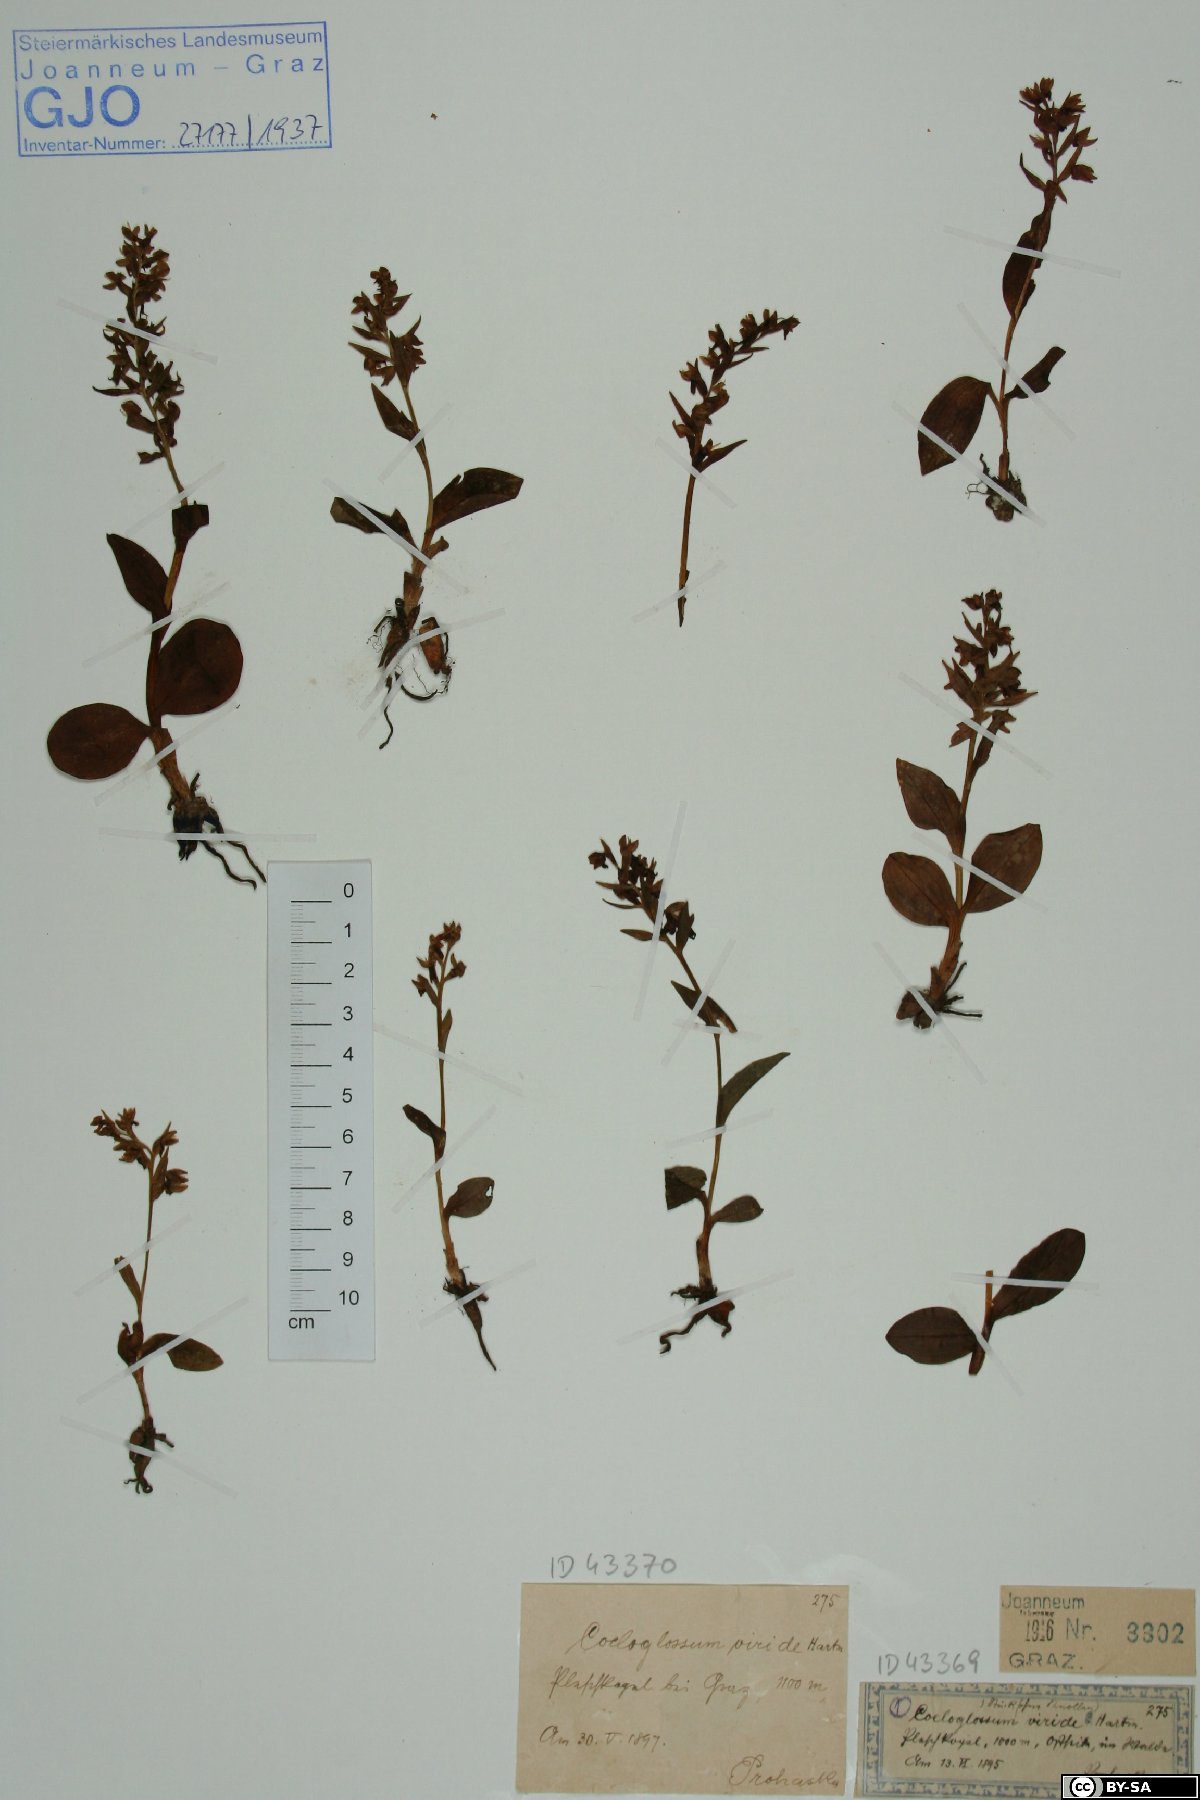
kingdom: Plantae
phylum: Tracheophyta
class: Liliopsida
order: Asparagales
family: Orchidaceae
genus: Dactylorhiza
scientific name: Dactylorhiza viridis
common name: Longbract frog orchid
